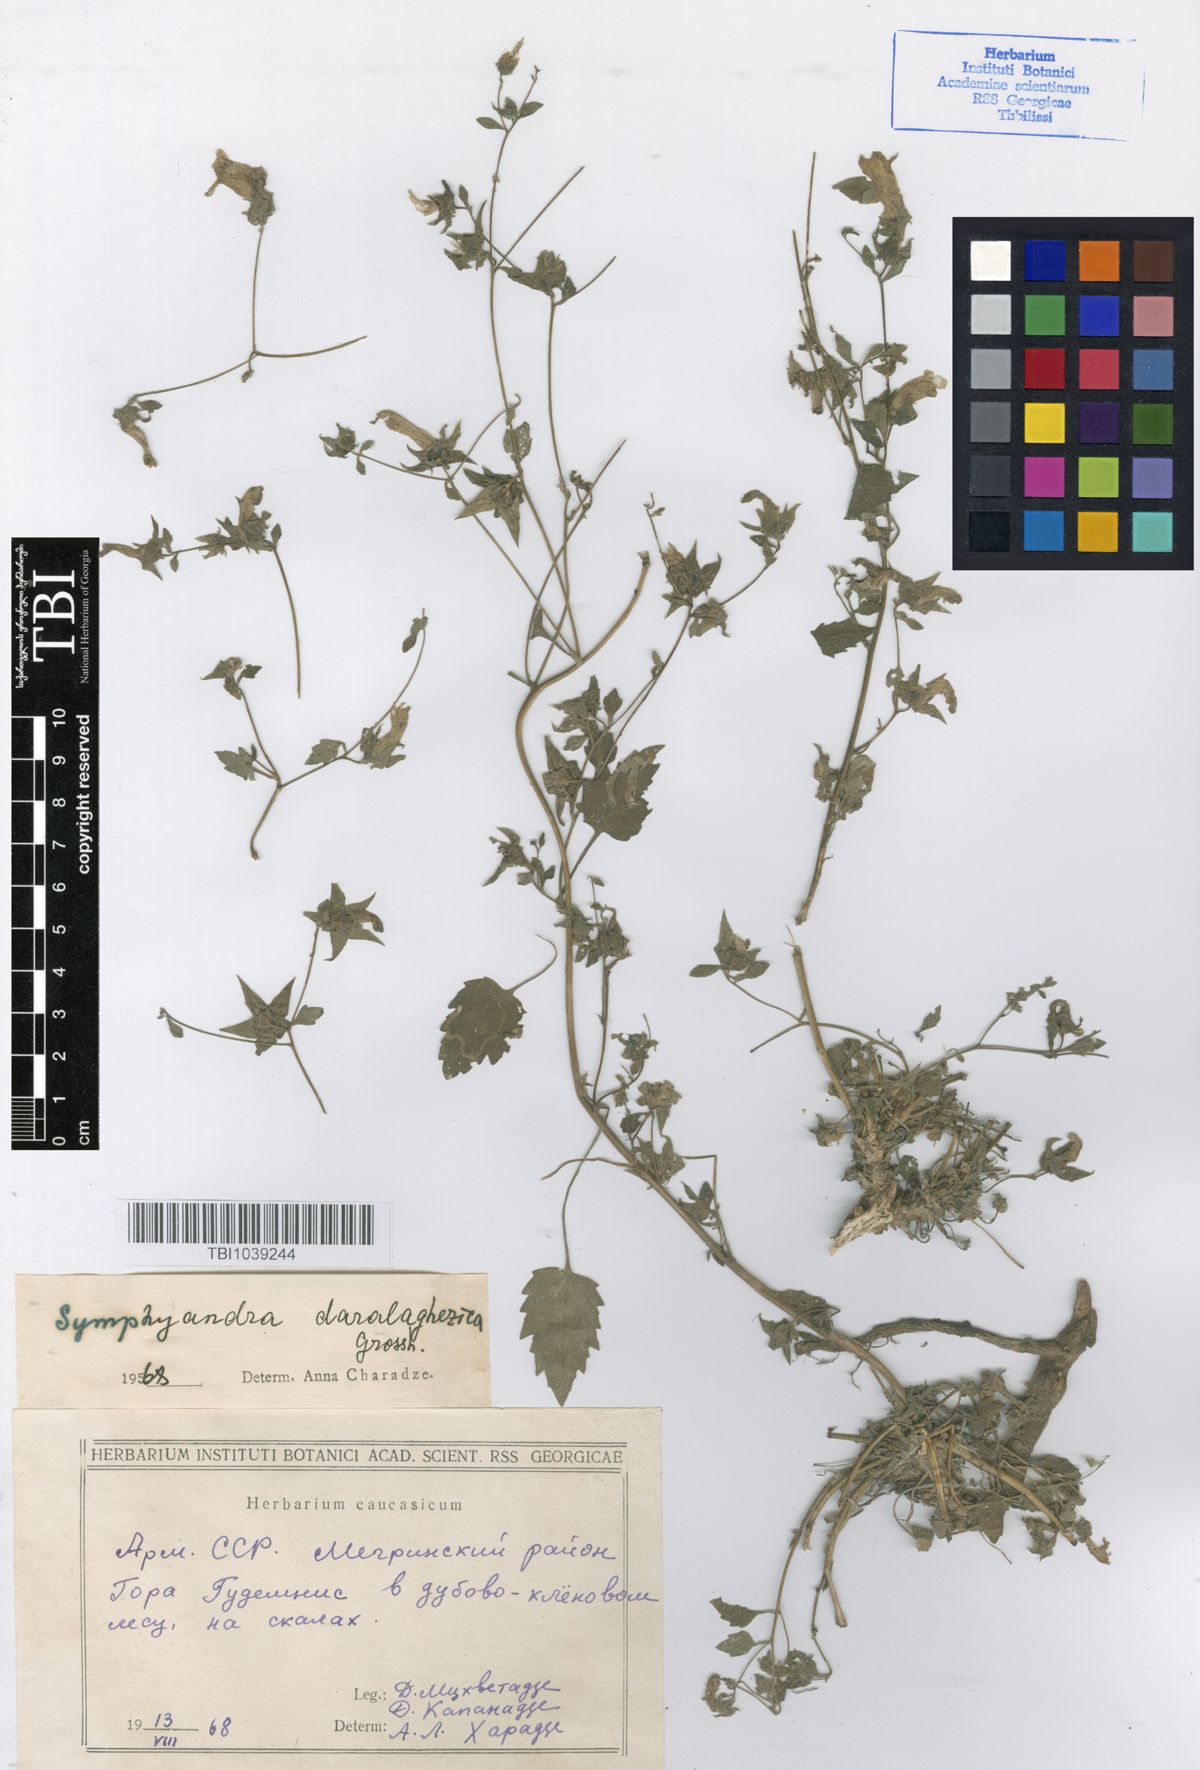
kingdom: Plantae
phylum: Tracheophyta
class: Magnoliopsida
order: Asterales
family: Campanulaceae
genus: Campanula
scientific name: Campanula armena
